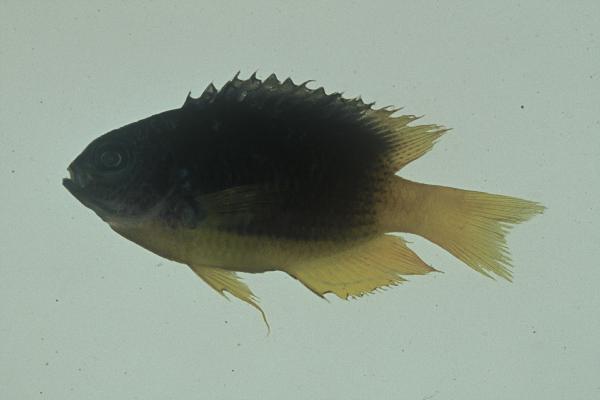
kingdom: Animalia
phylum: Chordata
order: Perciformes
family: Pomacentridae
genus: Pomacentrus
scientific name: Pomacentrus caeruleus
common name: Caerulean damsel
